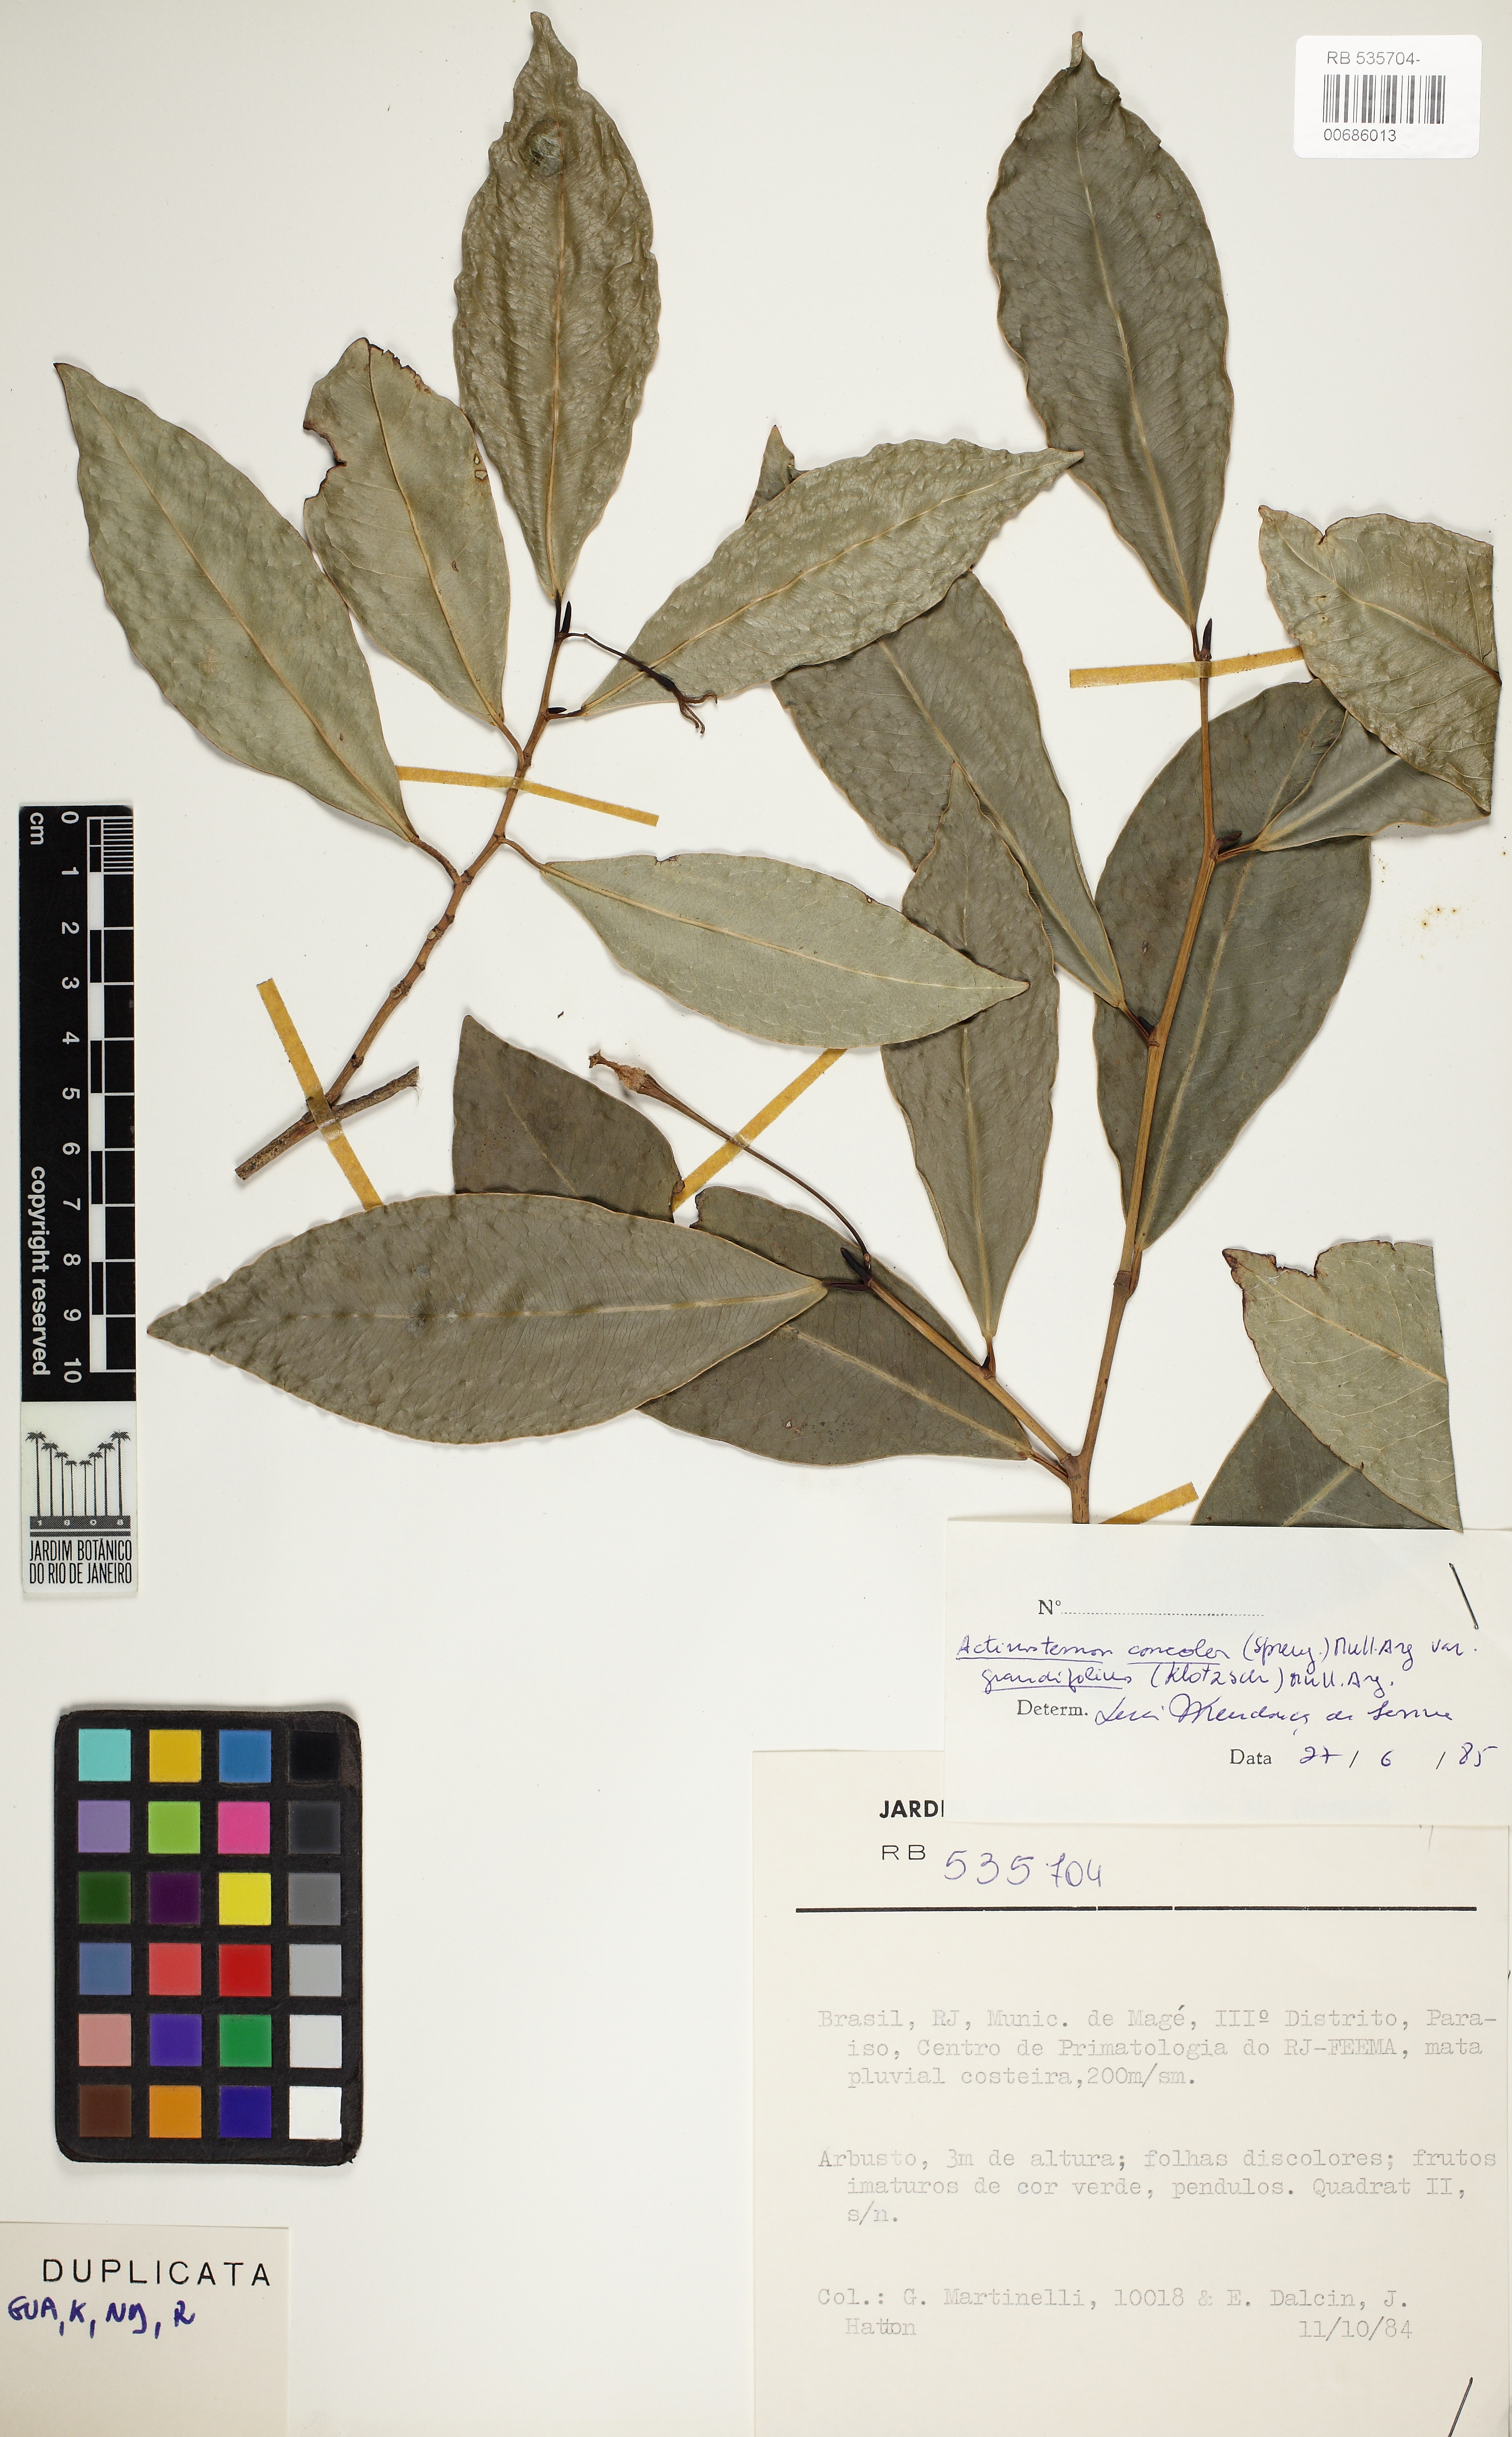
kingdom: Plantae
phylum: Tracheophyta
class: Magnoliopsida
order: Malpighiales
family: Euphorbiaceae
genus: Actinostemon
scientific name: Actinostemon concolor
